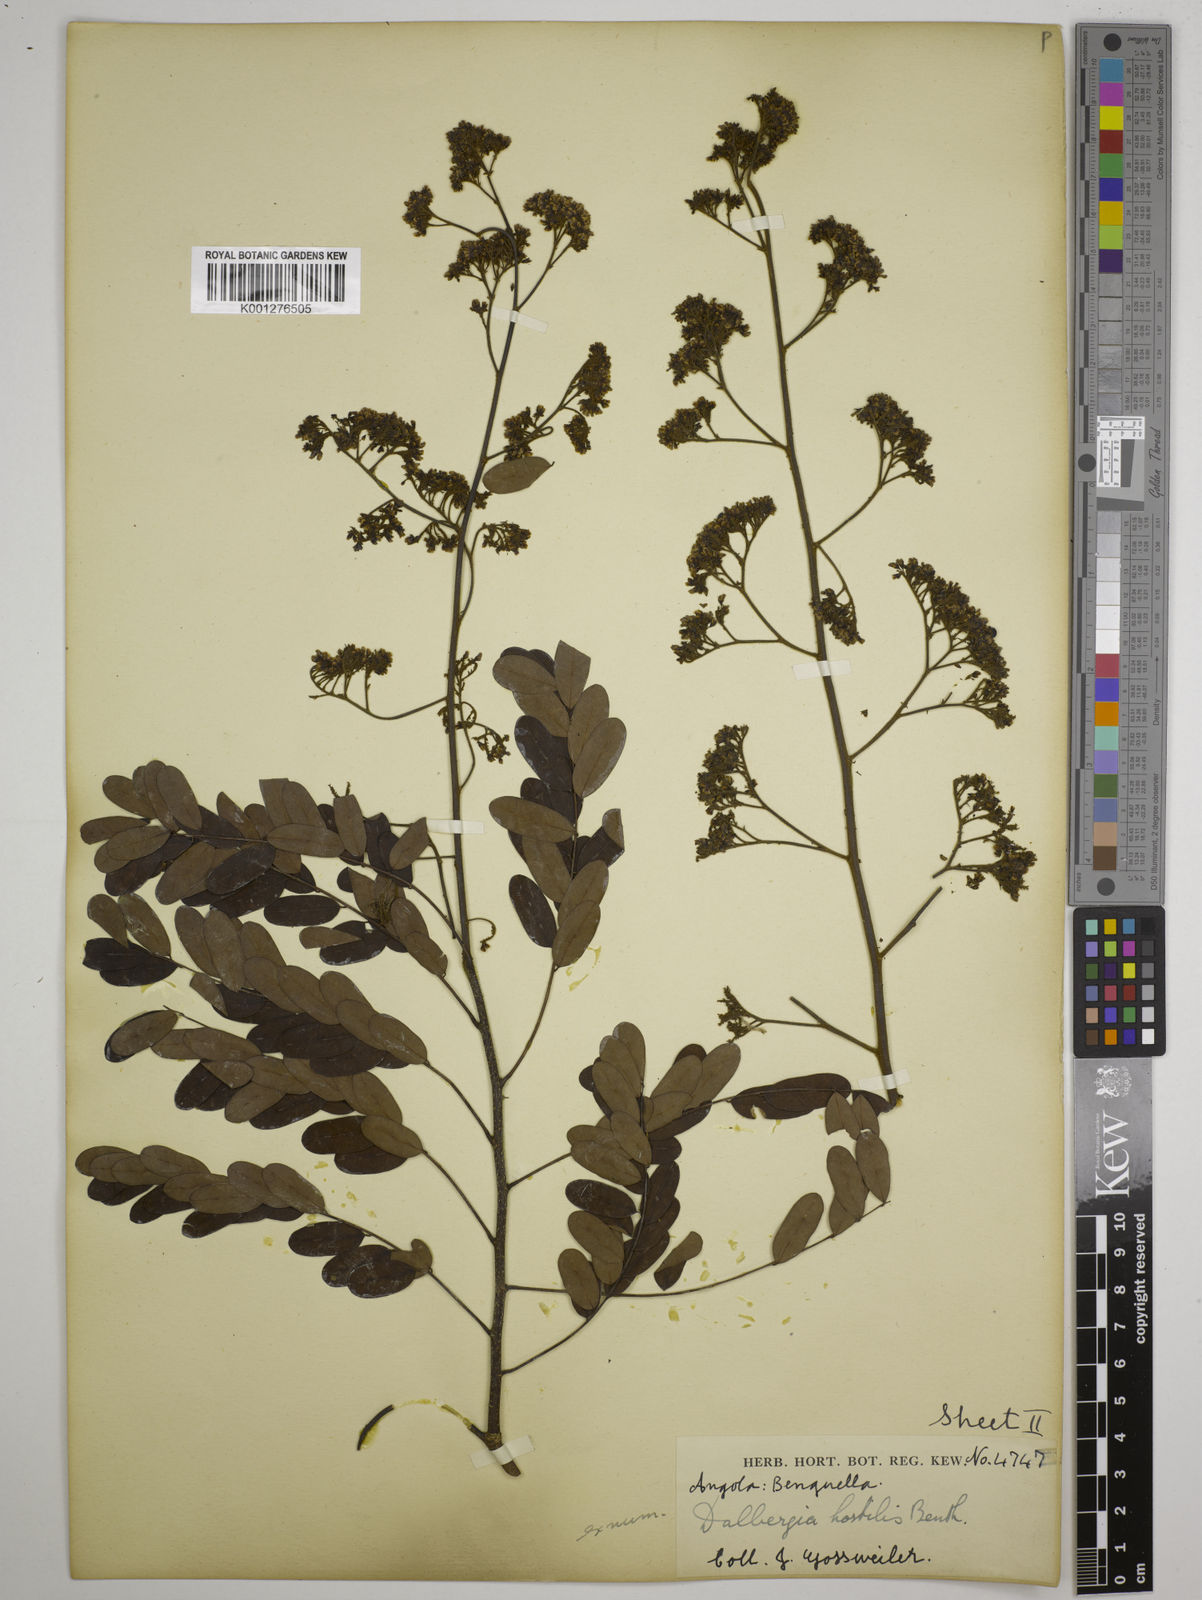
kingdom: Plantae
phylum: Tracheophyta
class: Magnoliopsida
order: Fabales
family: Fabaceae
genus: Dalbergia
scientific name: Dalbergia hostilis
